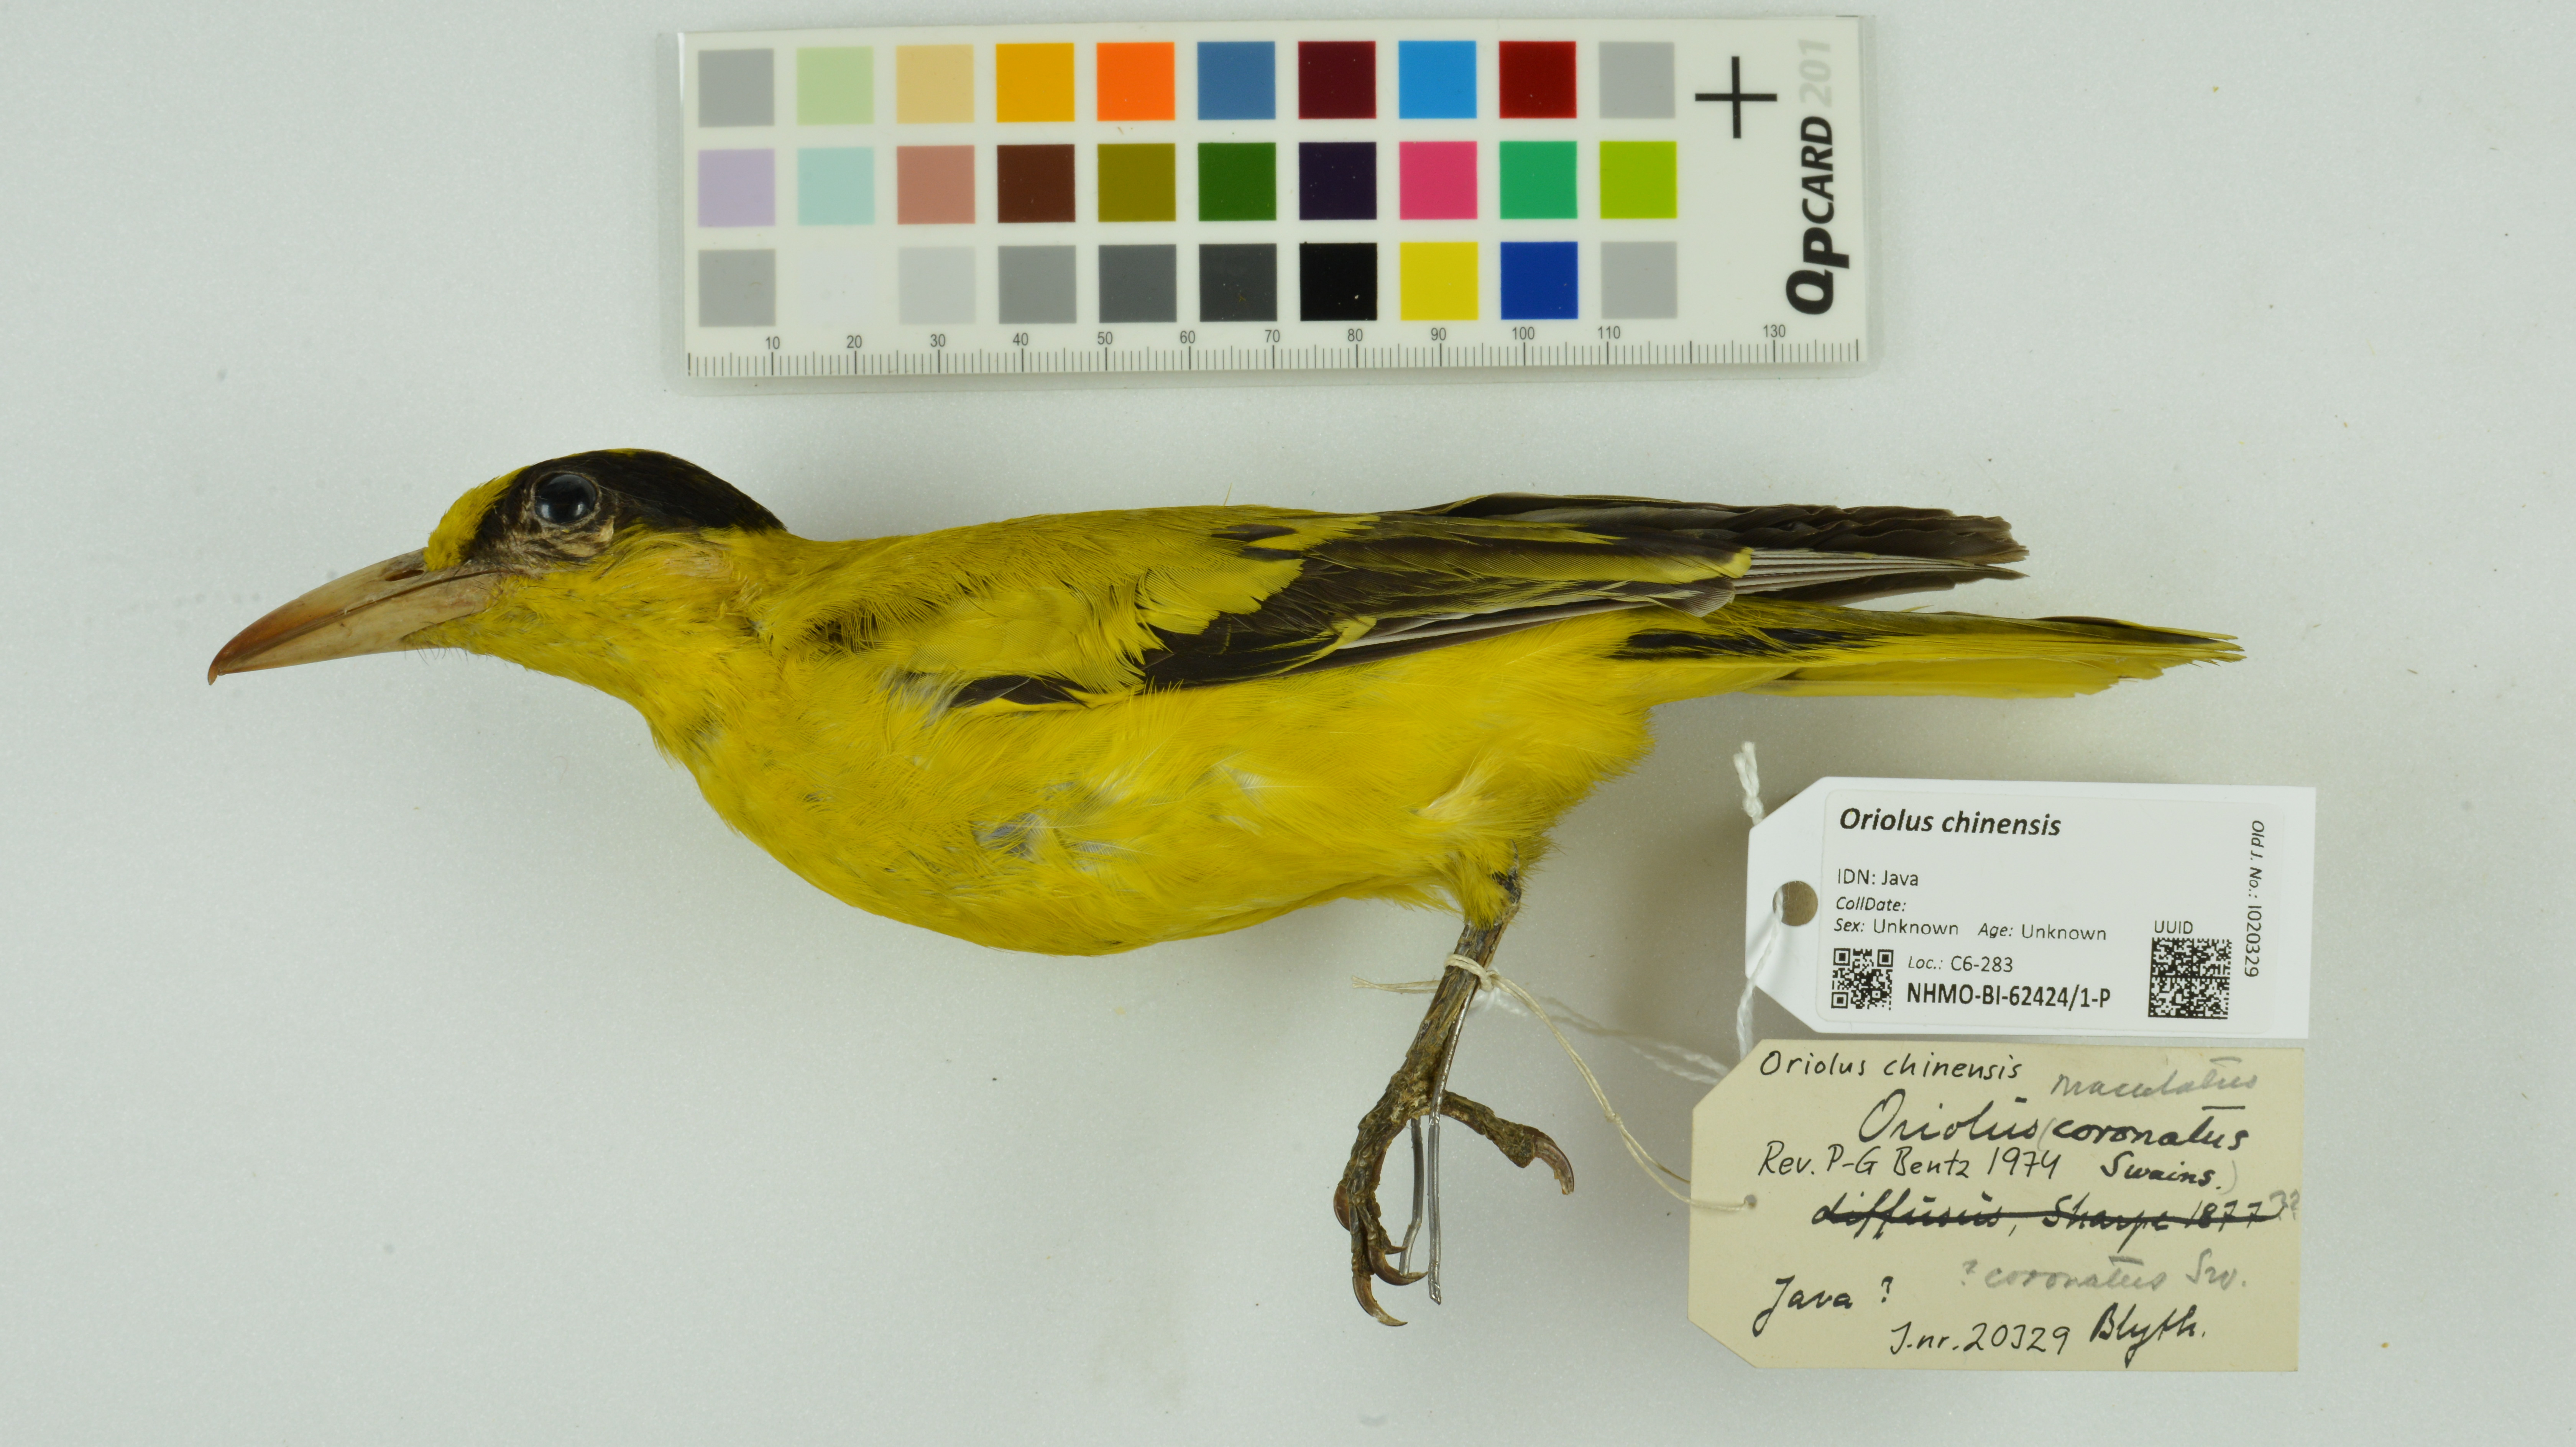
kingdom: Animalia
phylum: Chordata
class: Aves
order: Passeriformes
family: Oriolidae
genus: Oriolus
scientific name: Oriolus chinensis
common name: Black-naped oriole
